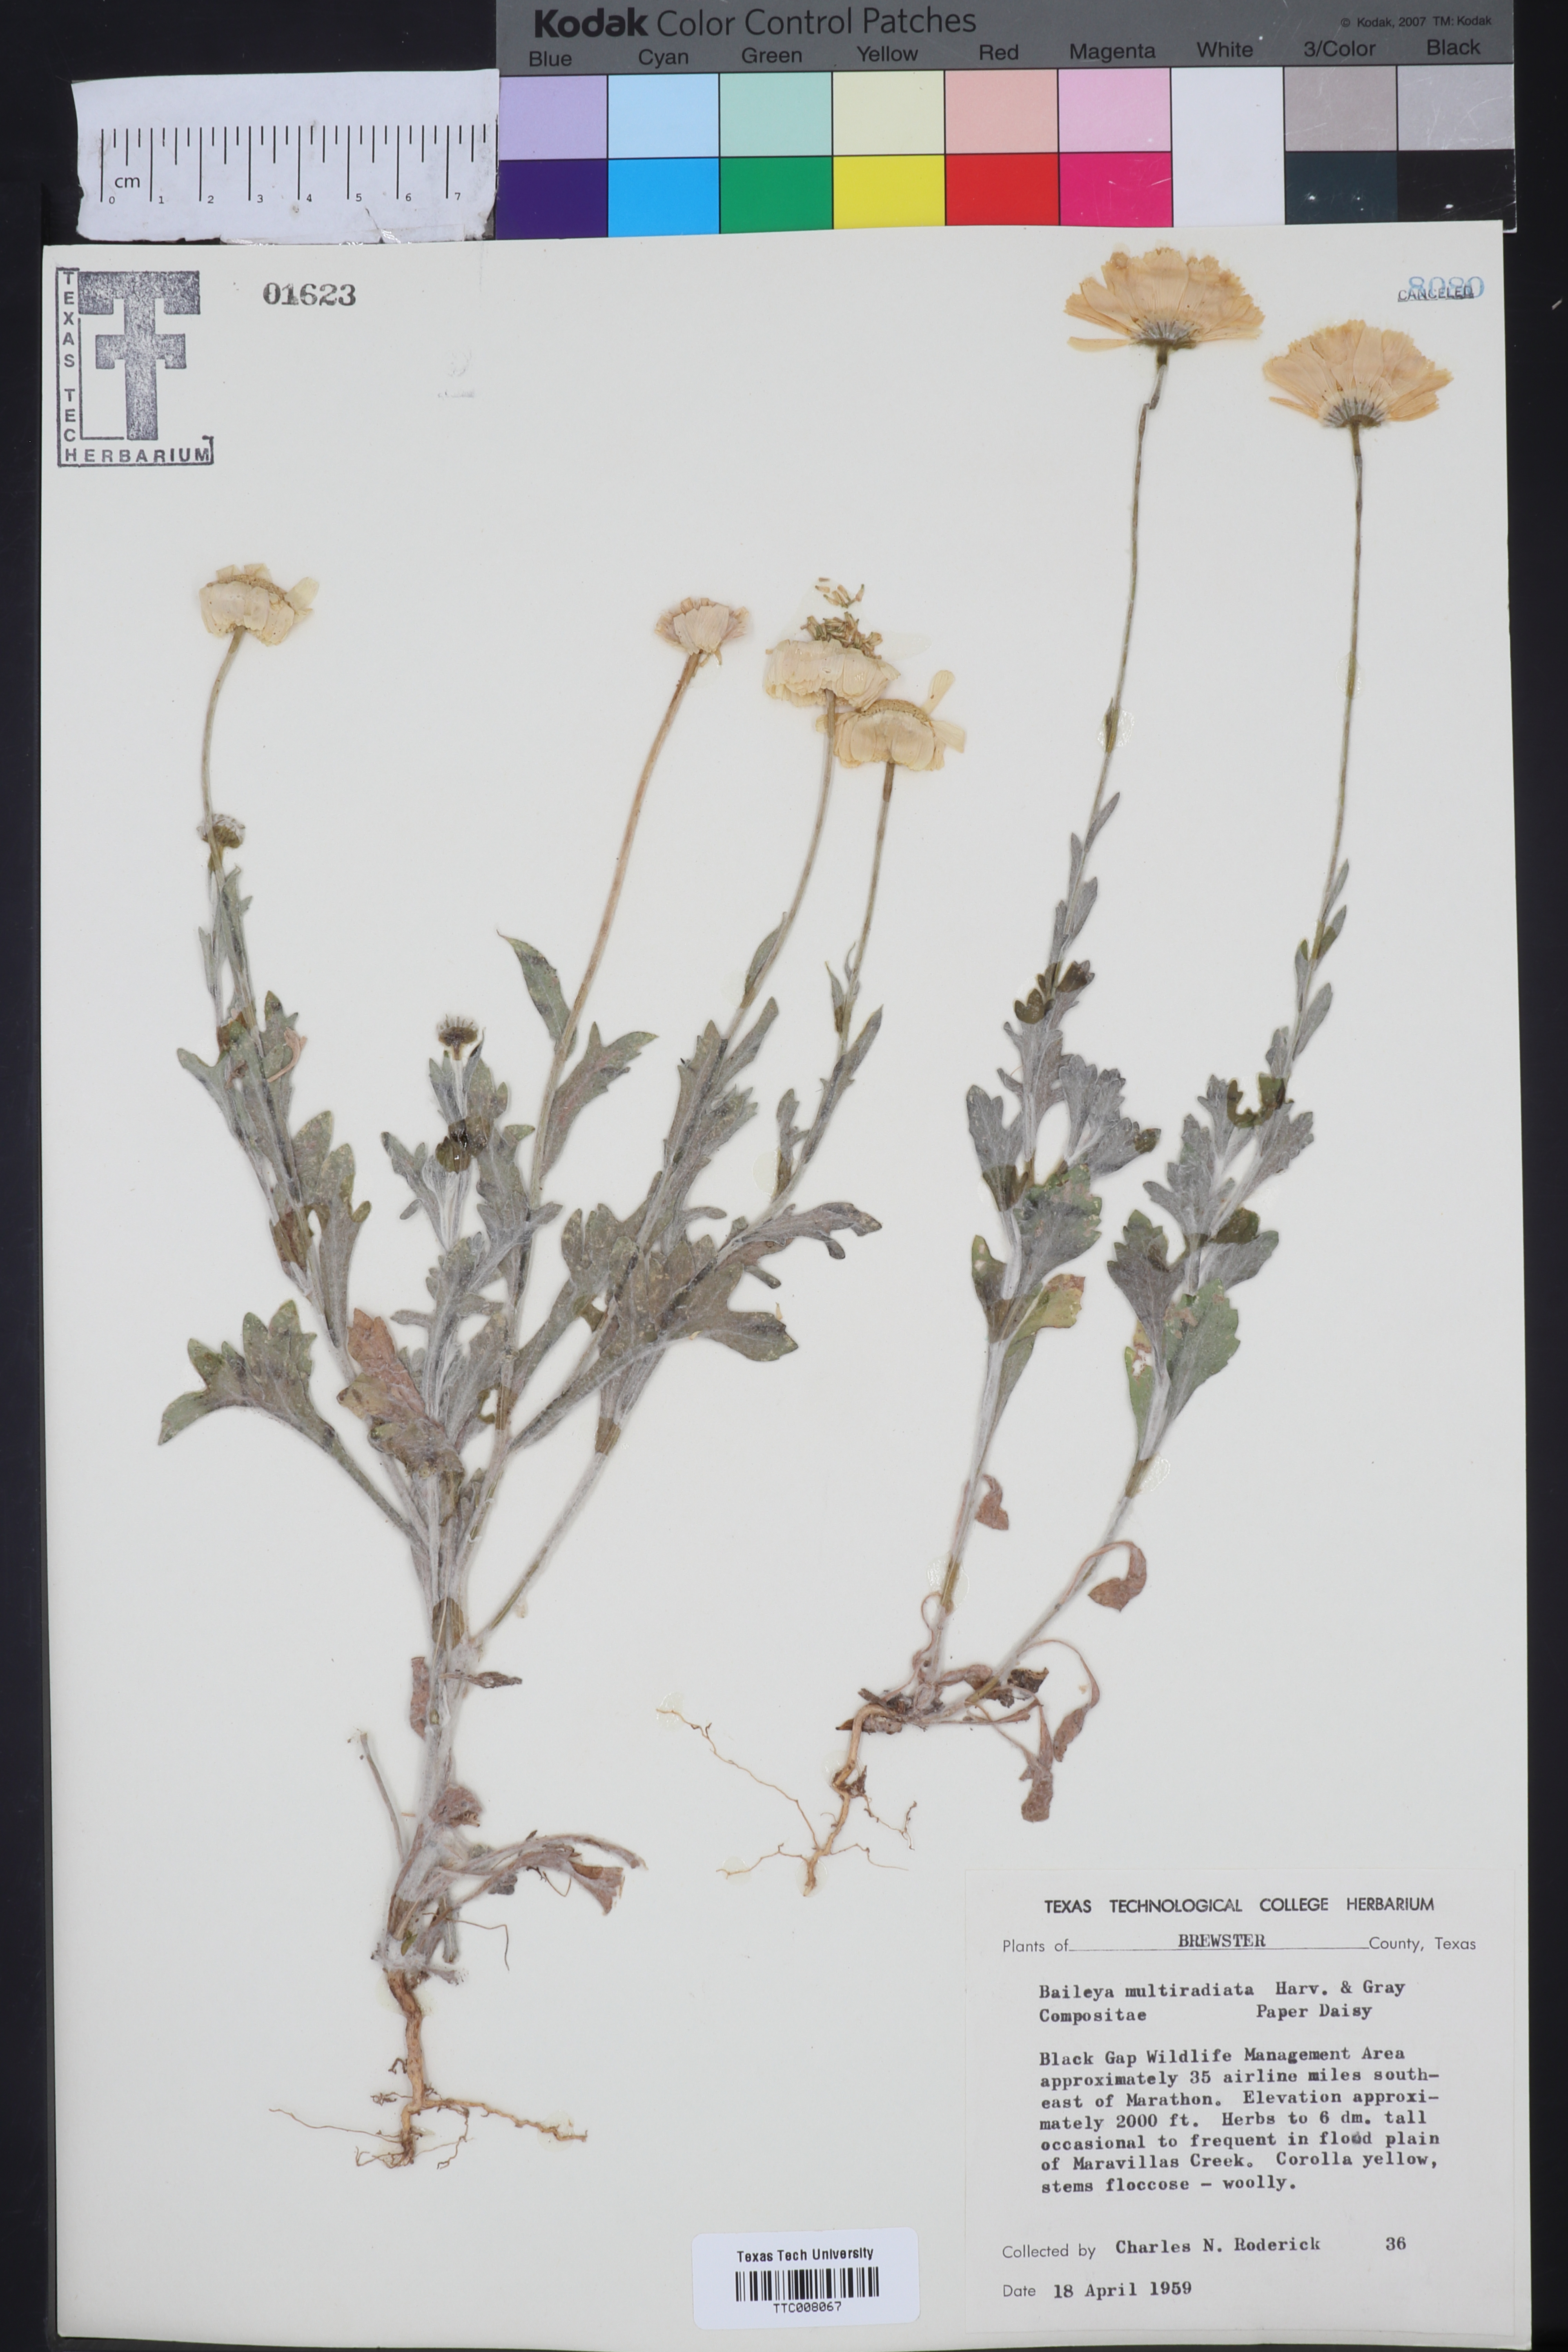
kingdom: Plantae
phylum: Tracheophyta
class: Magnoliopsida
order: Asterales
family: Asteraceae
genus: Baileya
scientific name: Baileya multiradiata
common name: Desert-marigold
